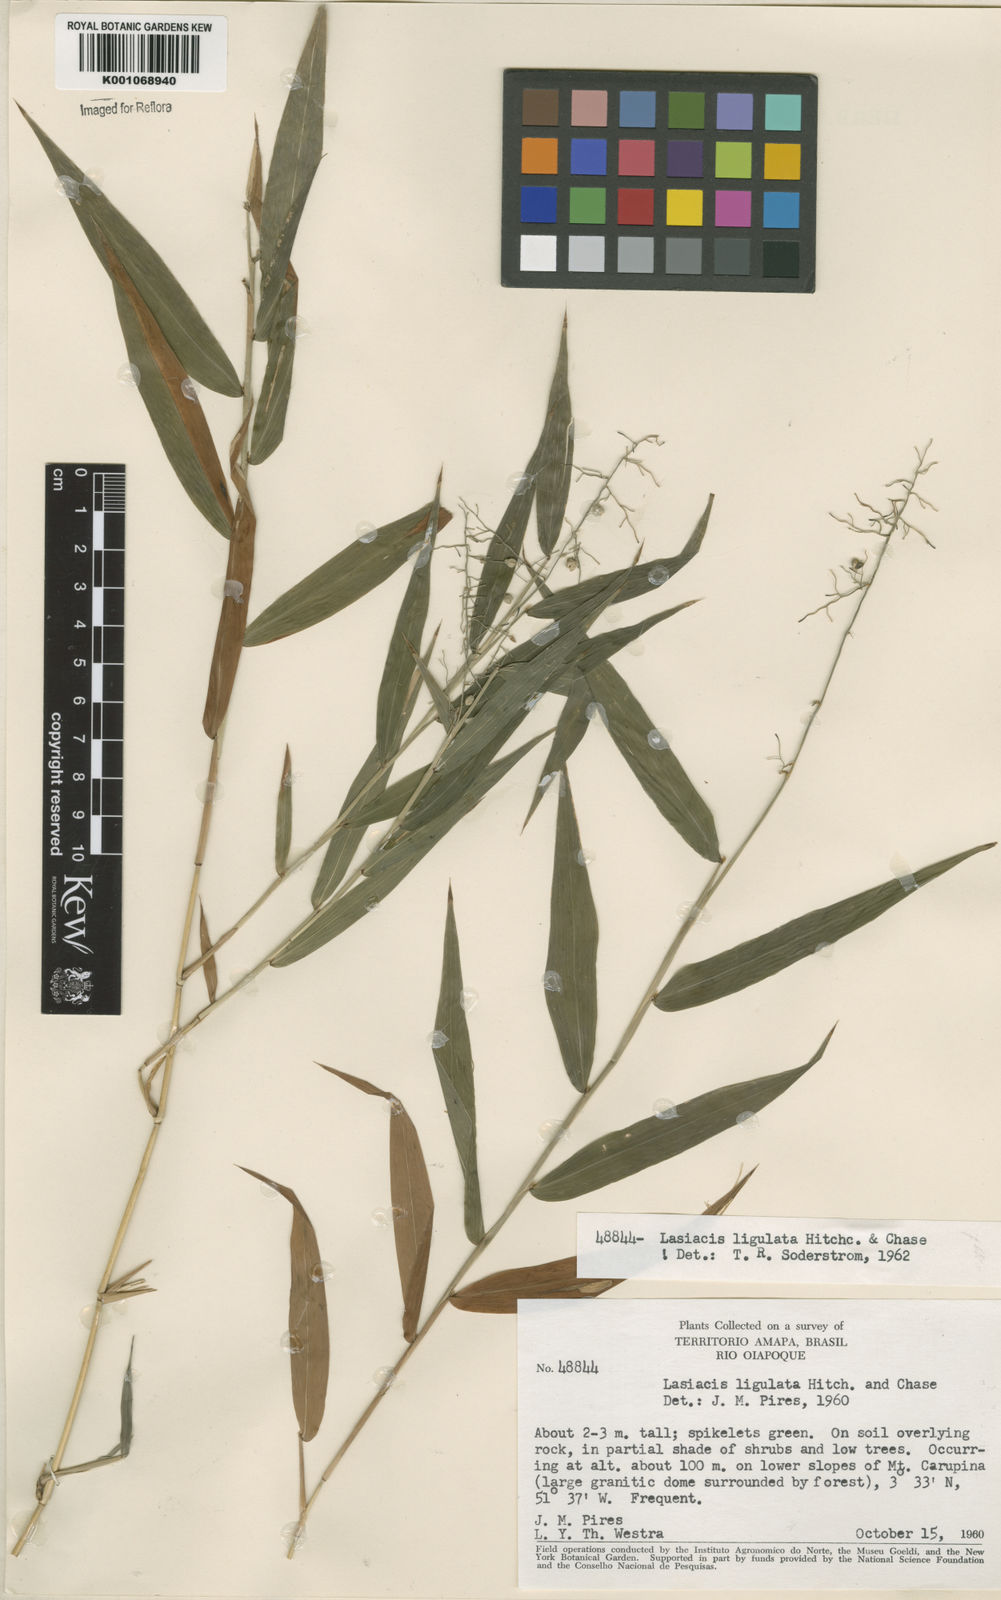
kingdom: Plantae
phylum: Tracheophyta
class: Liliopsida
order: Poales
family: Poaceae
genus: Lasiacis
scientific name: Lasiacis ligulata
